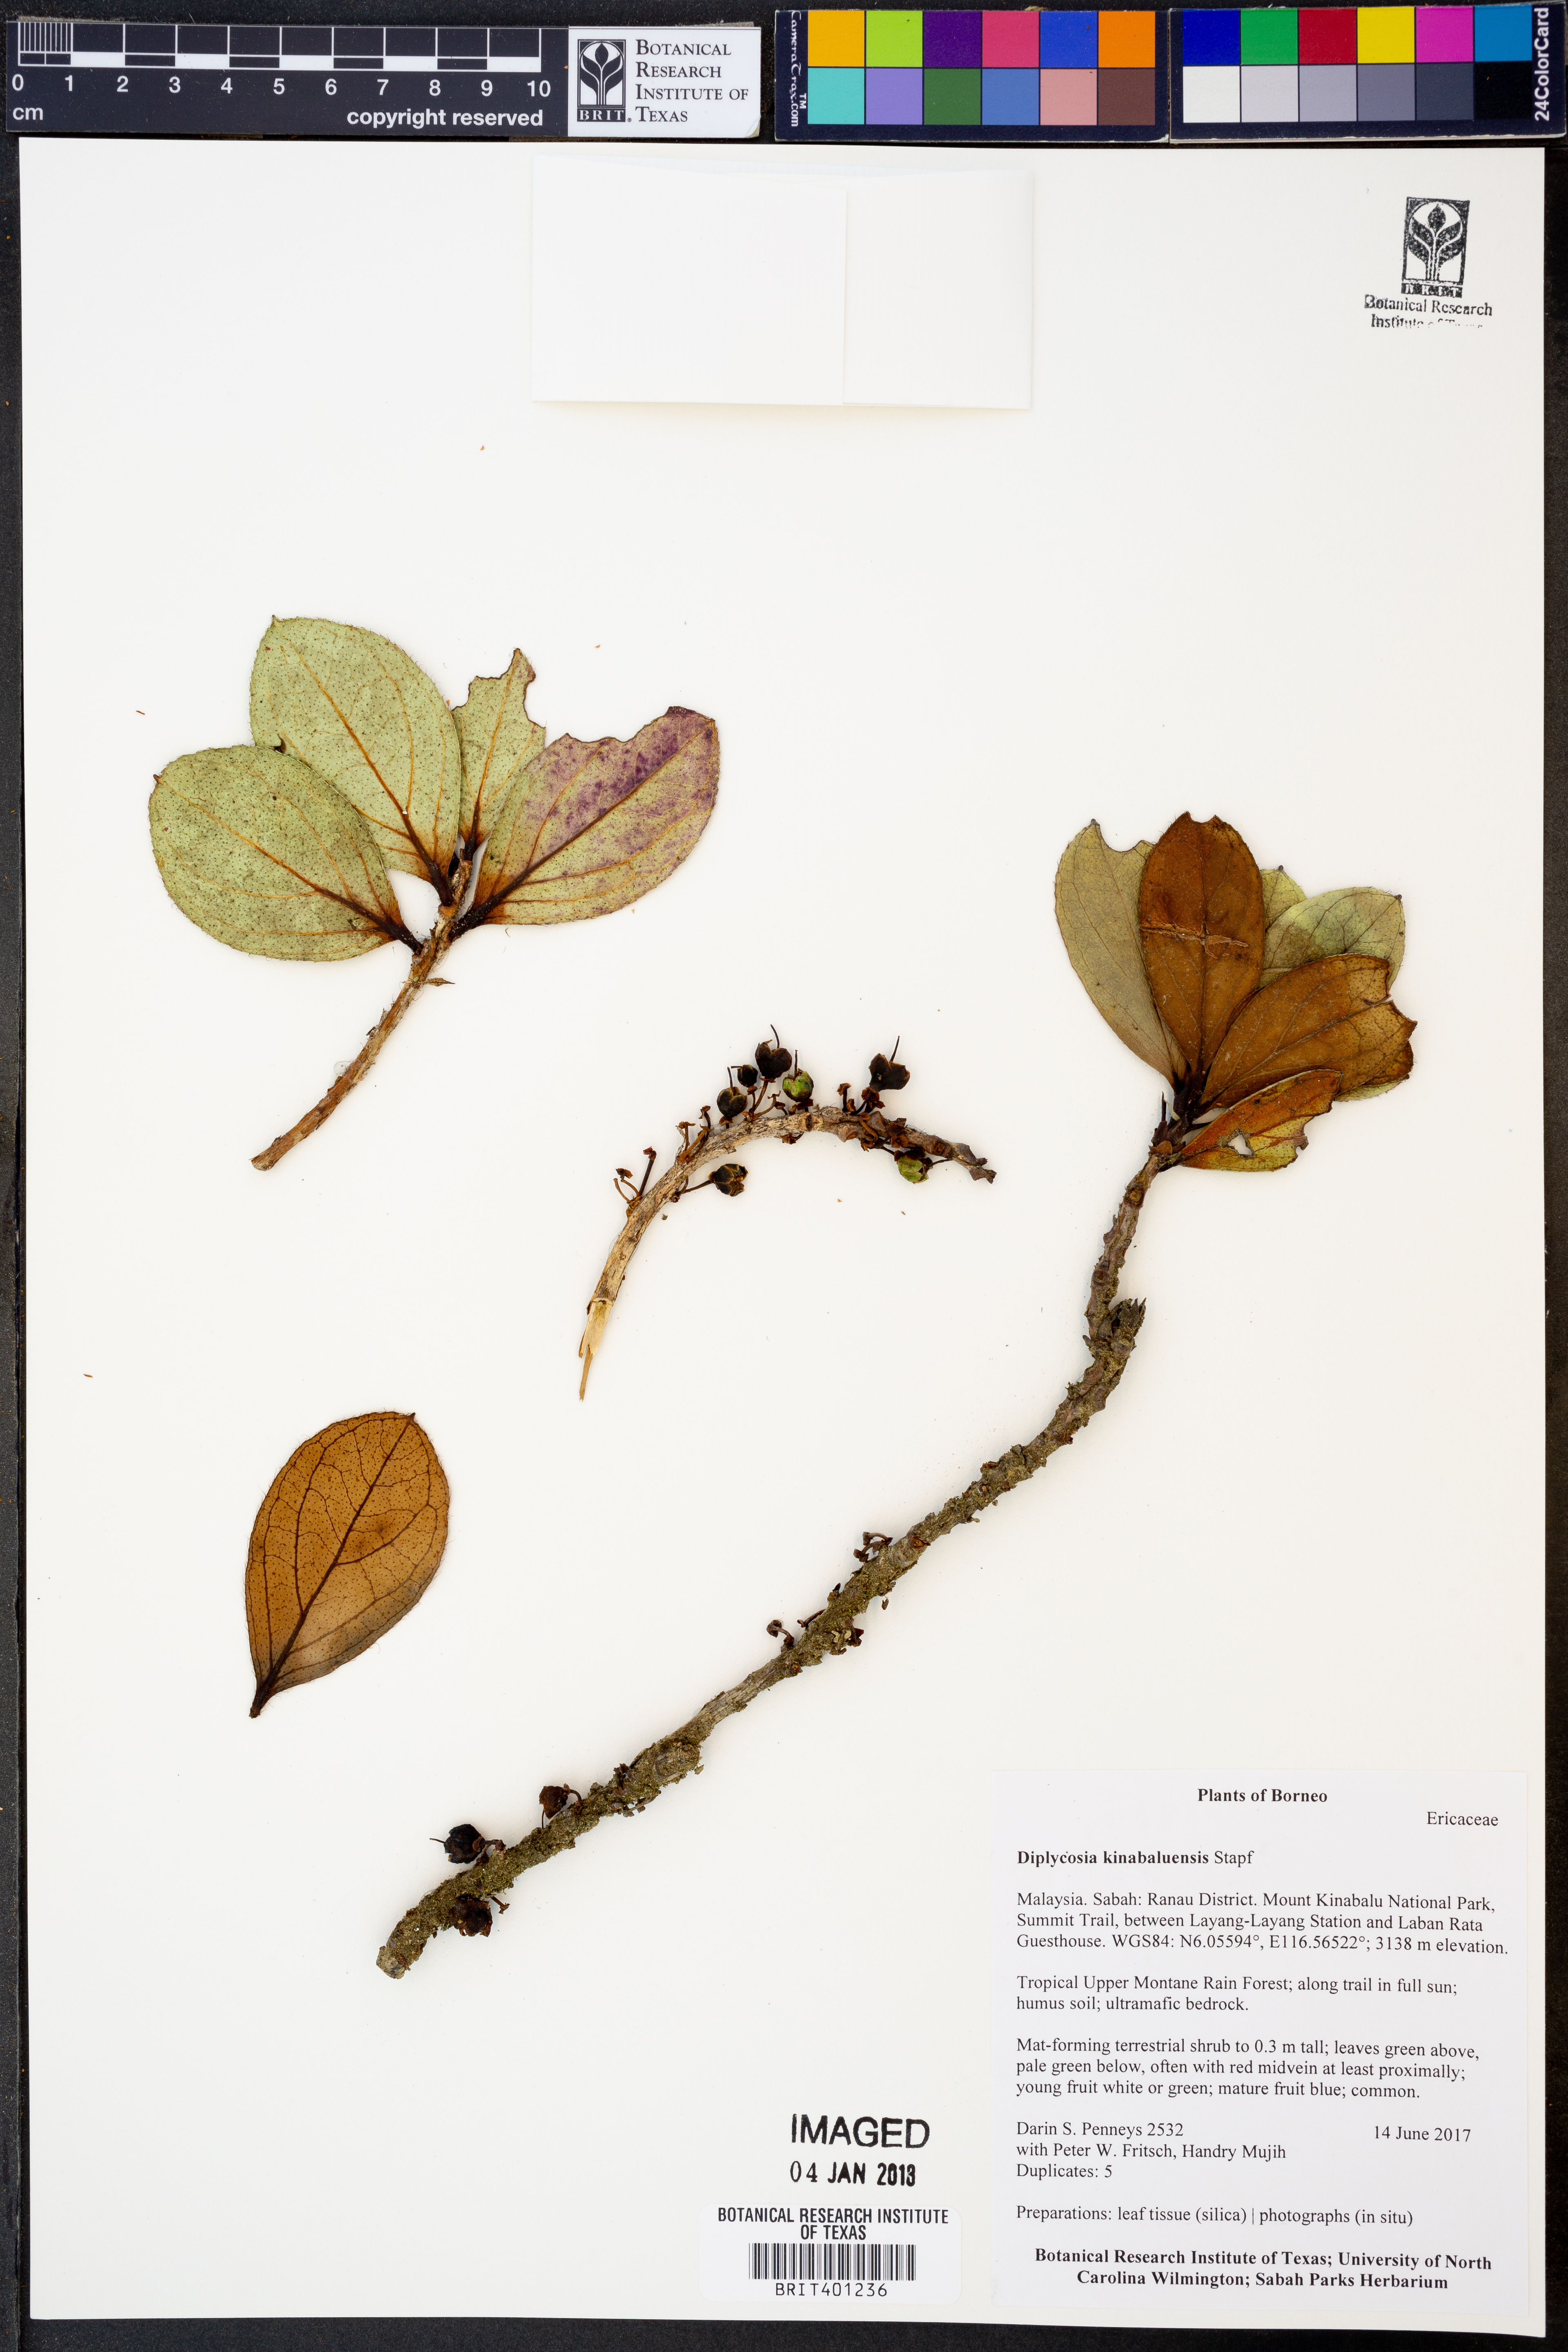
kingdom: Plantae
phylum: Tracheophyta
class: Magnoliopsida
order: Ericales
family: Ericaceae
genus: Gaultheria
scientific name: Gaultheria kinabaluensis
